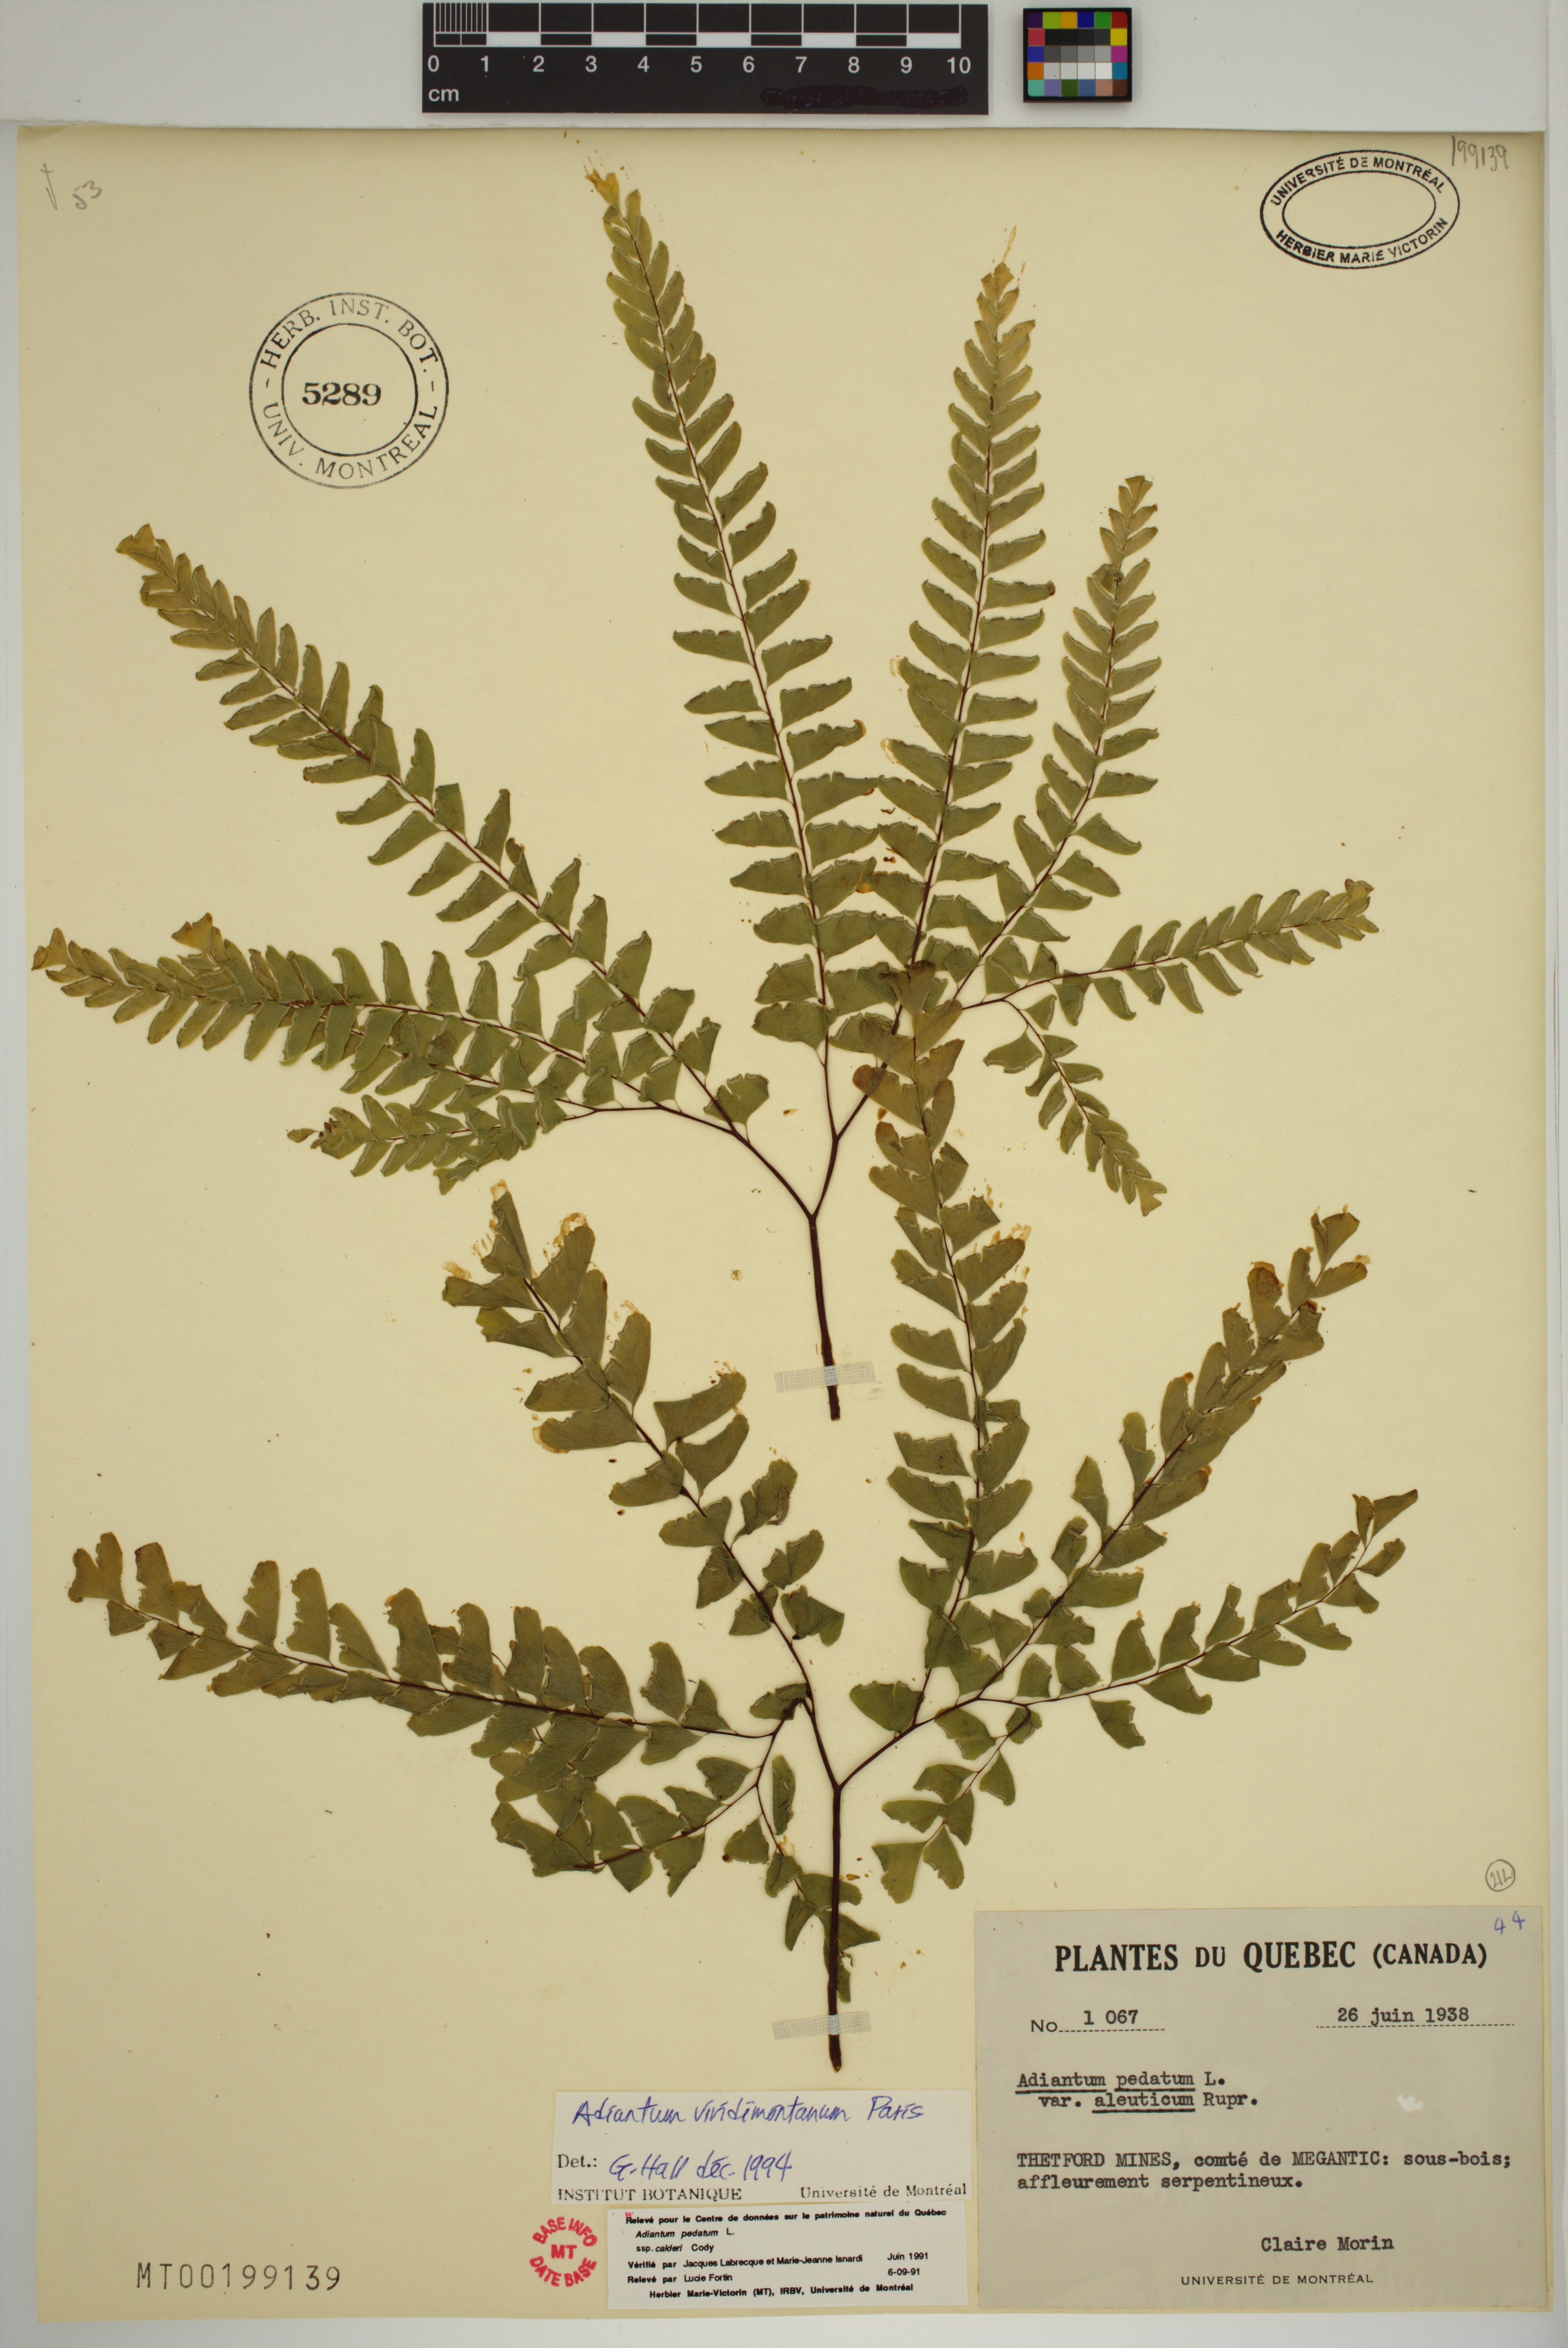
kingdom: Plantae
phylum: Tracheophyta
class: Polypodiopsida
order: Polypodiales
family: Pteridaceae
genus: Adiantum
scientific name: Adiantum viridimontanum
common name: Green mountain maidenhair
